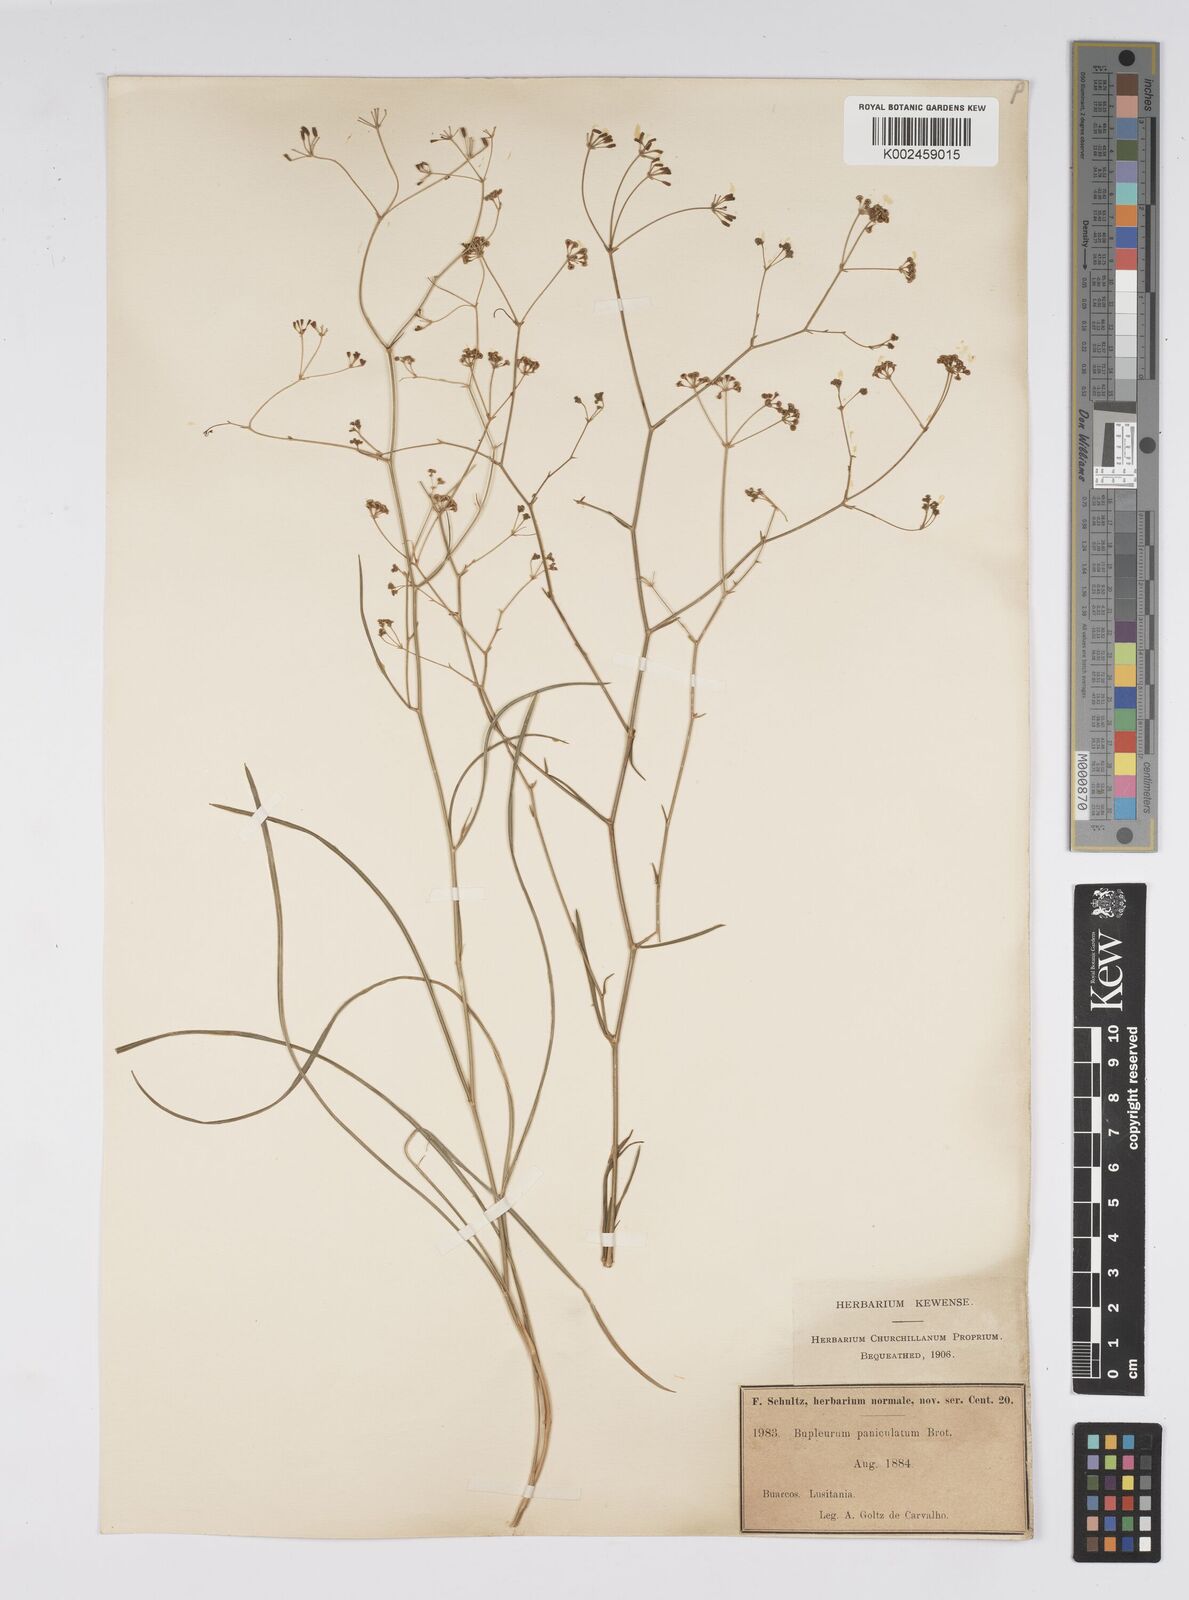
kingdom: Plantae
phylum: Tracheophyta
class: Magnoliopsida
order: Apiales
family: Apiaceae
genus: Bupleurum
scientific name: Bupleurum rigidum
